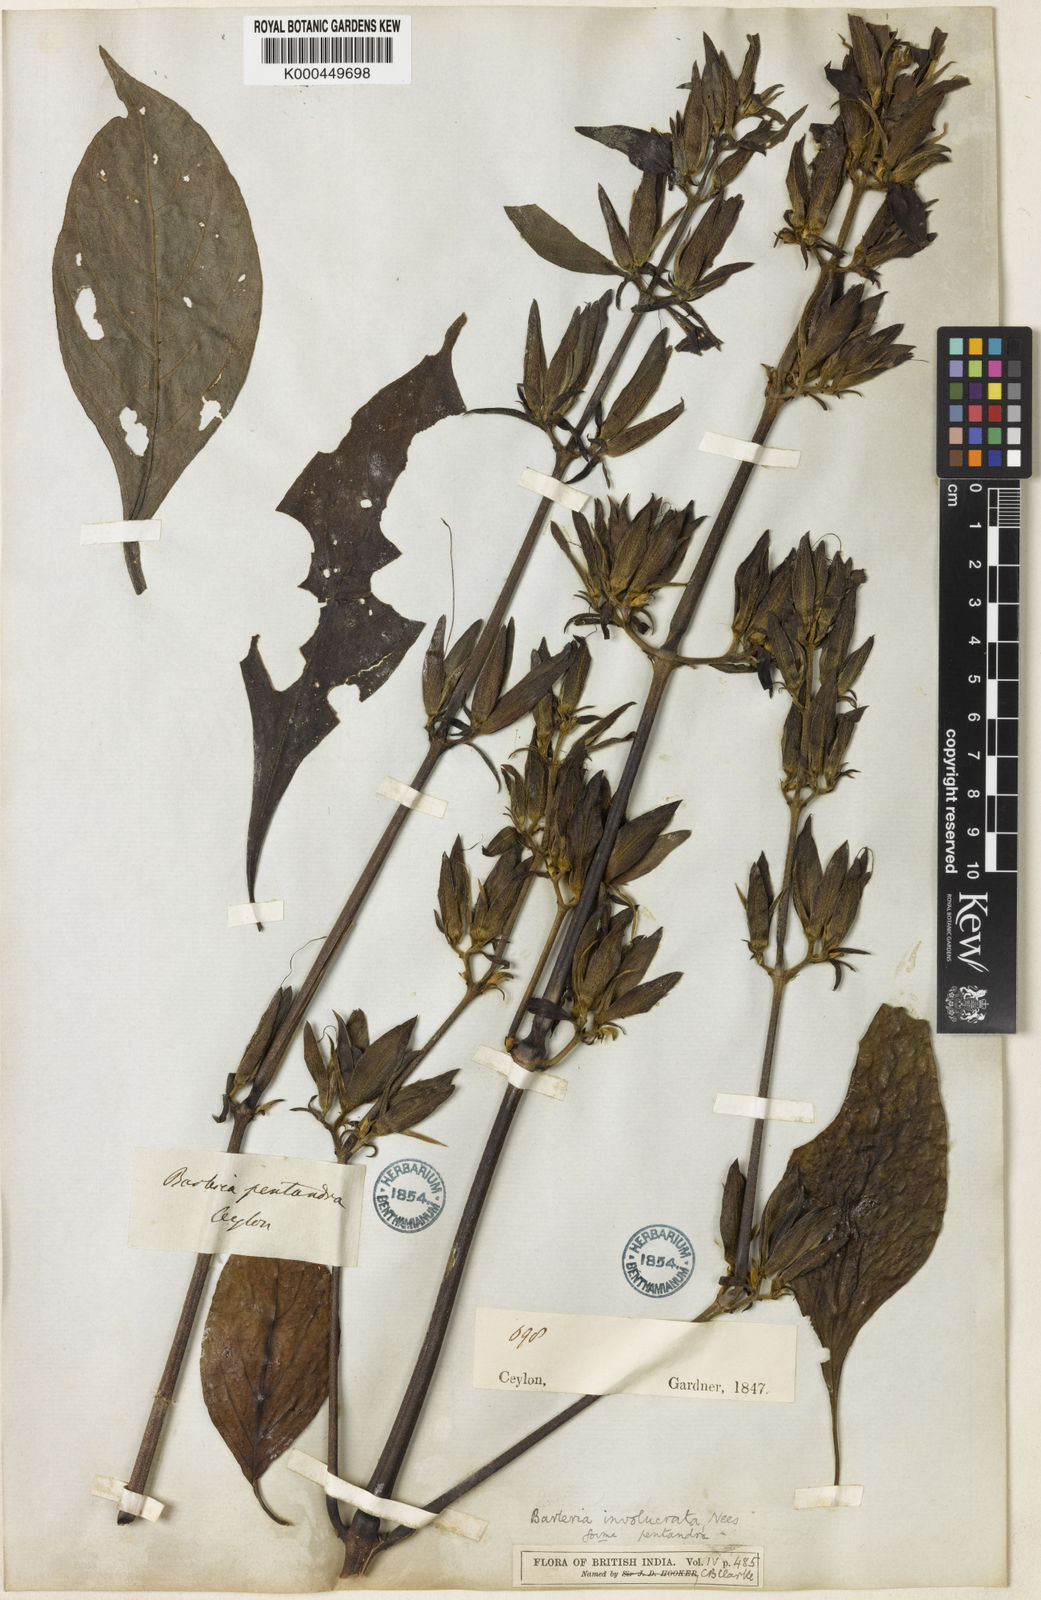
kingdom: Plantae
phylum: Tracheophyta
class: Magnoliopsida
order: Lamiales
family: Acanthaceae
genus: Barleria
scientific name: Barleria involucrata
